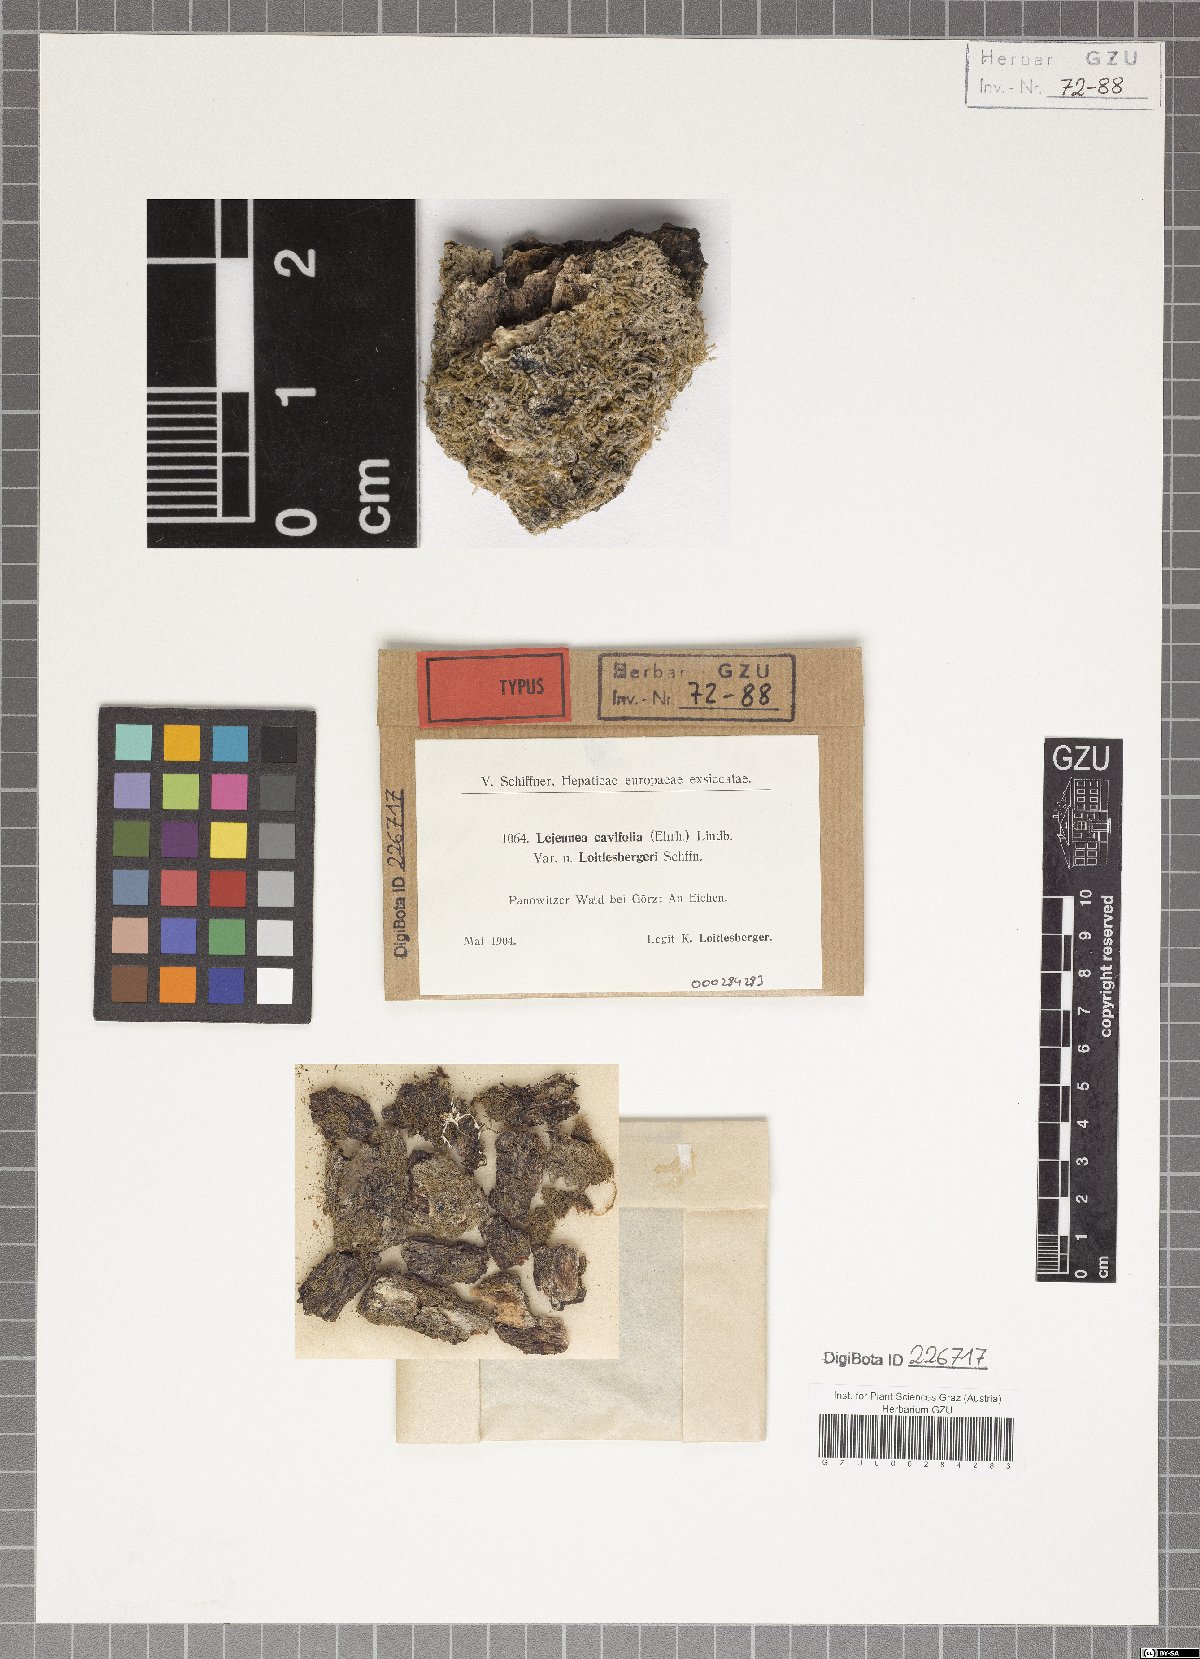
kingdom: Plantae
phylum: Marchantiophyta
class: Jungermanniopsida
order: Porellales
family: Lejeuneaceae
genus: Lejeunea
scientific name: Lejeunea cavifolia
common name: Least pouncewort
